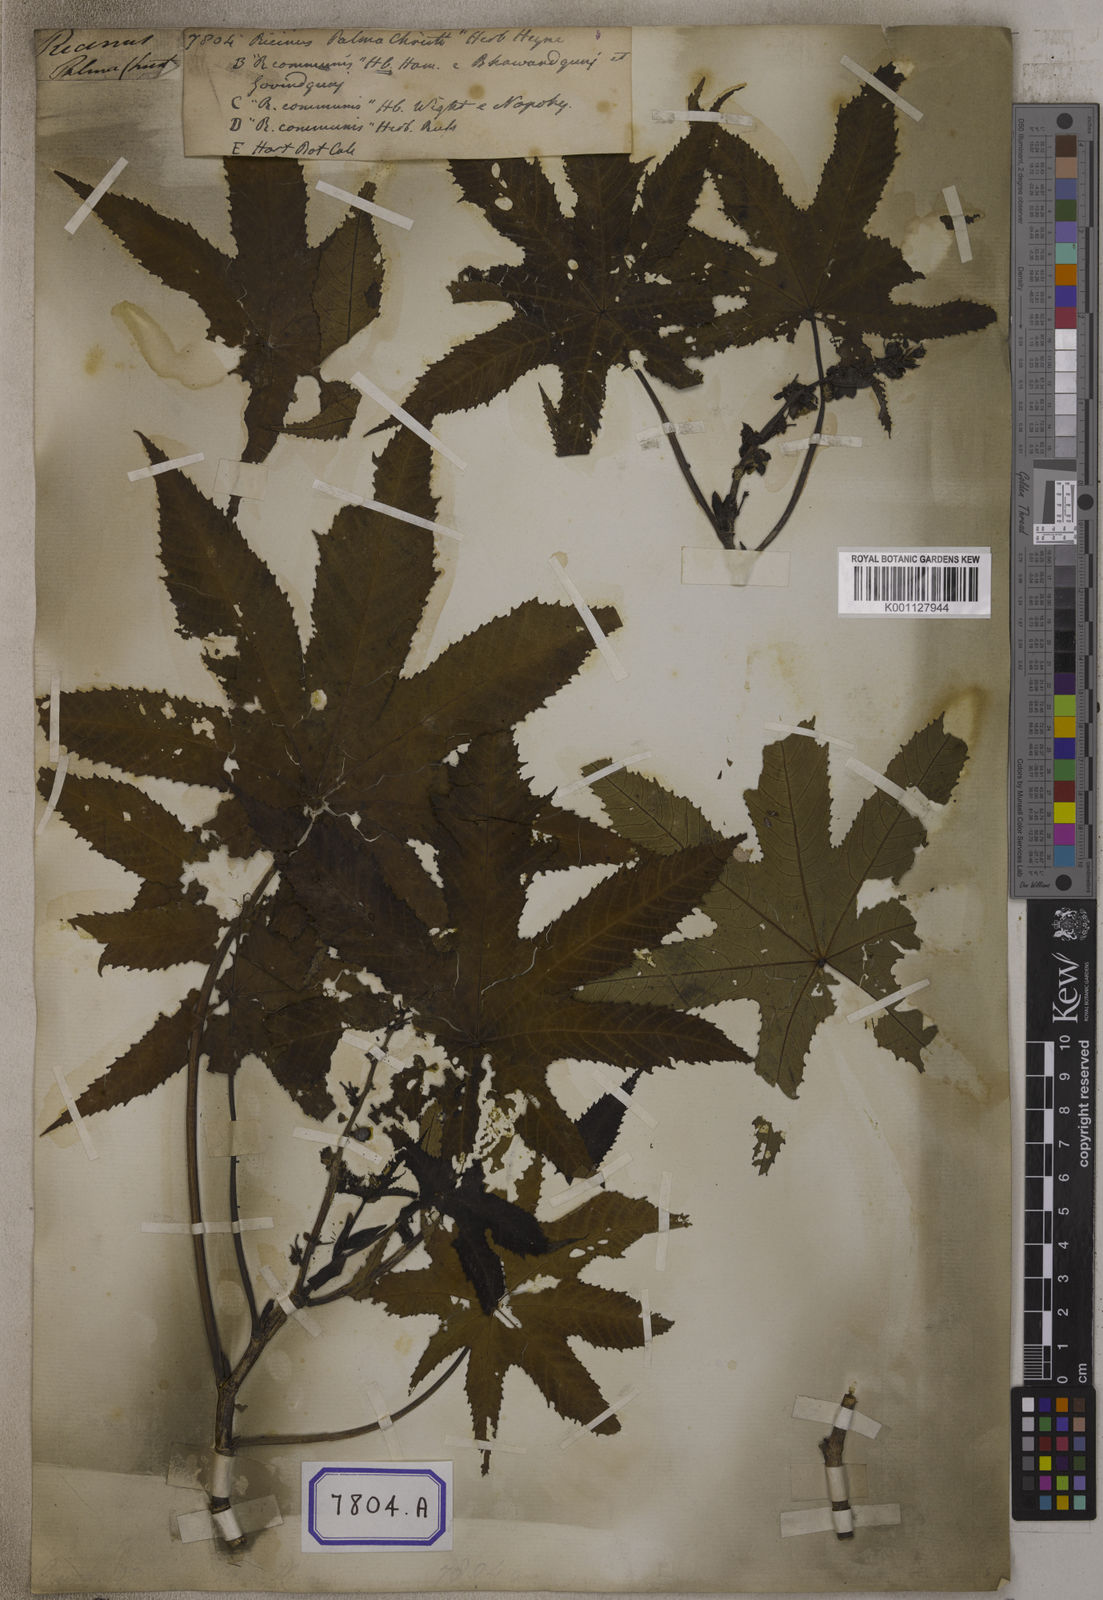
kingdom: Plantae
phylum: Tracheophyta
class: Magnoliopsida
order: Malpighiales
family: Euphorbiaceae
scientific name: Euphorbiaceae
